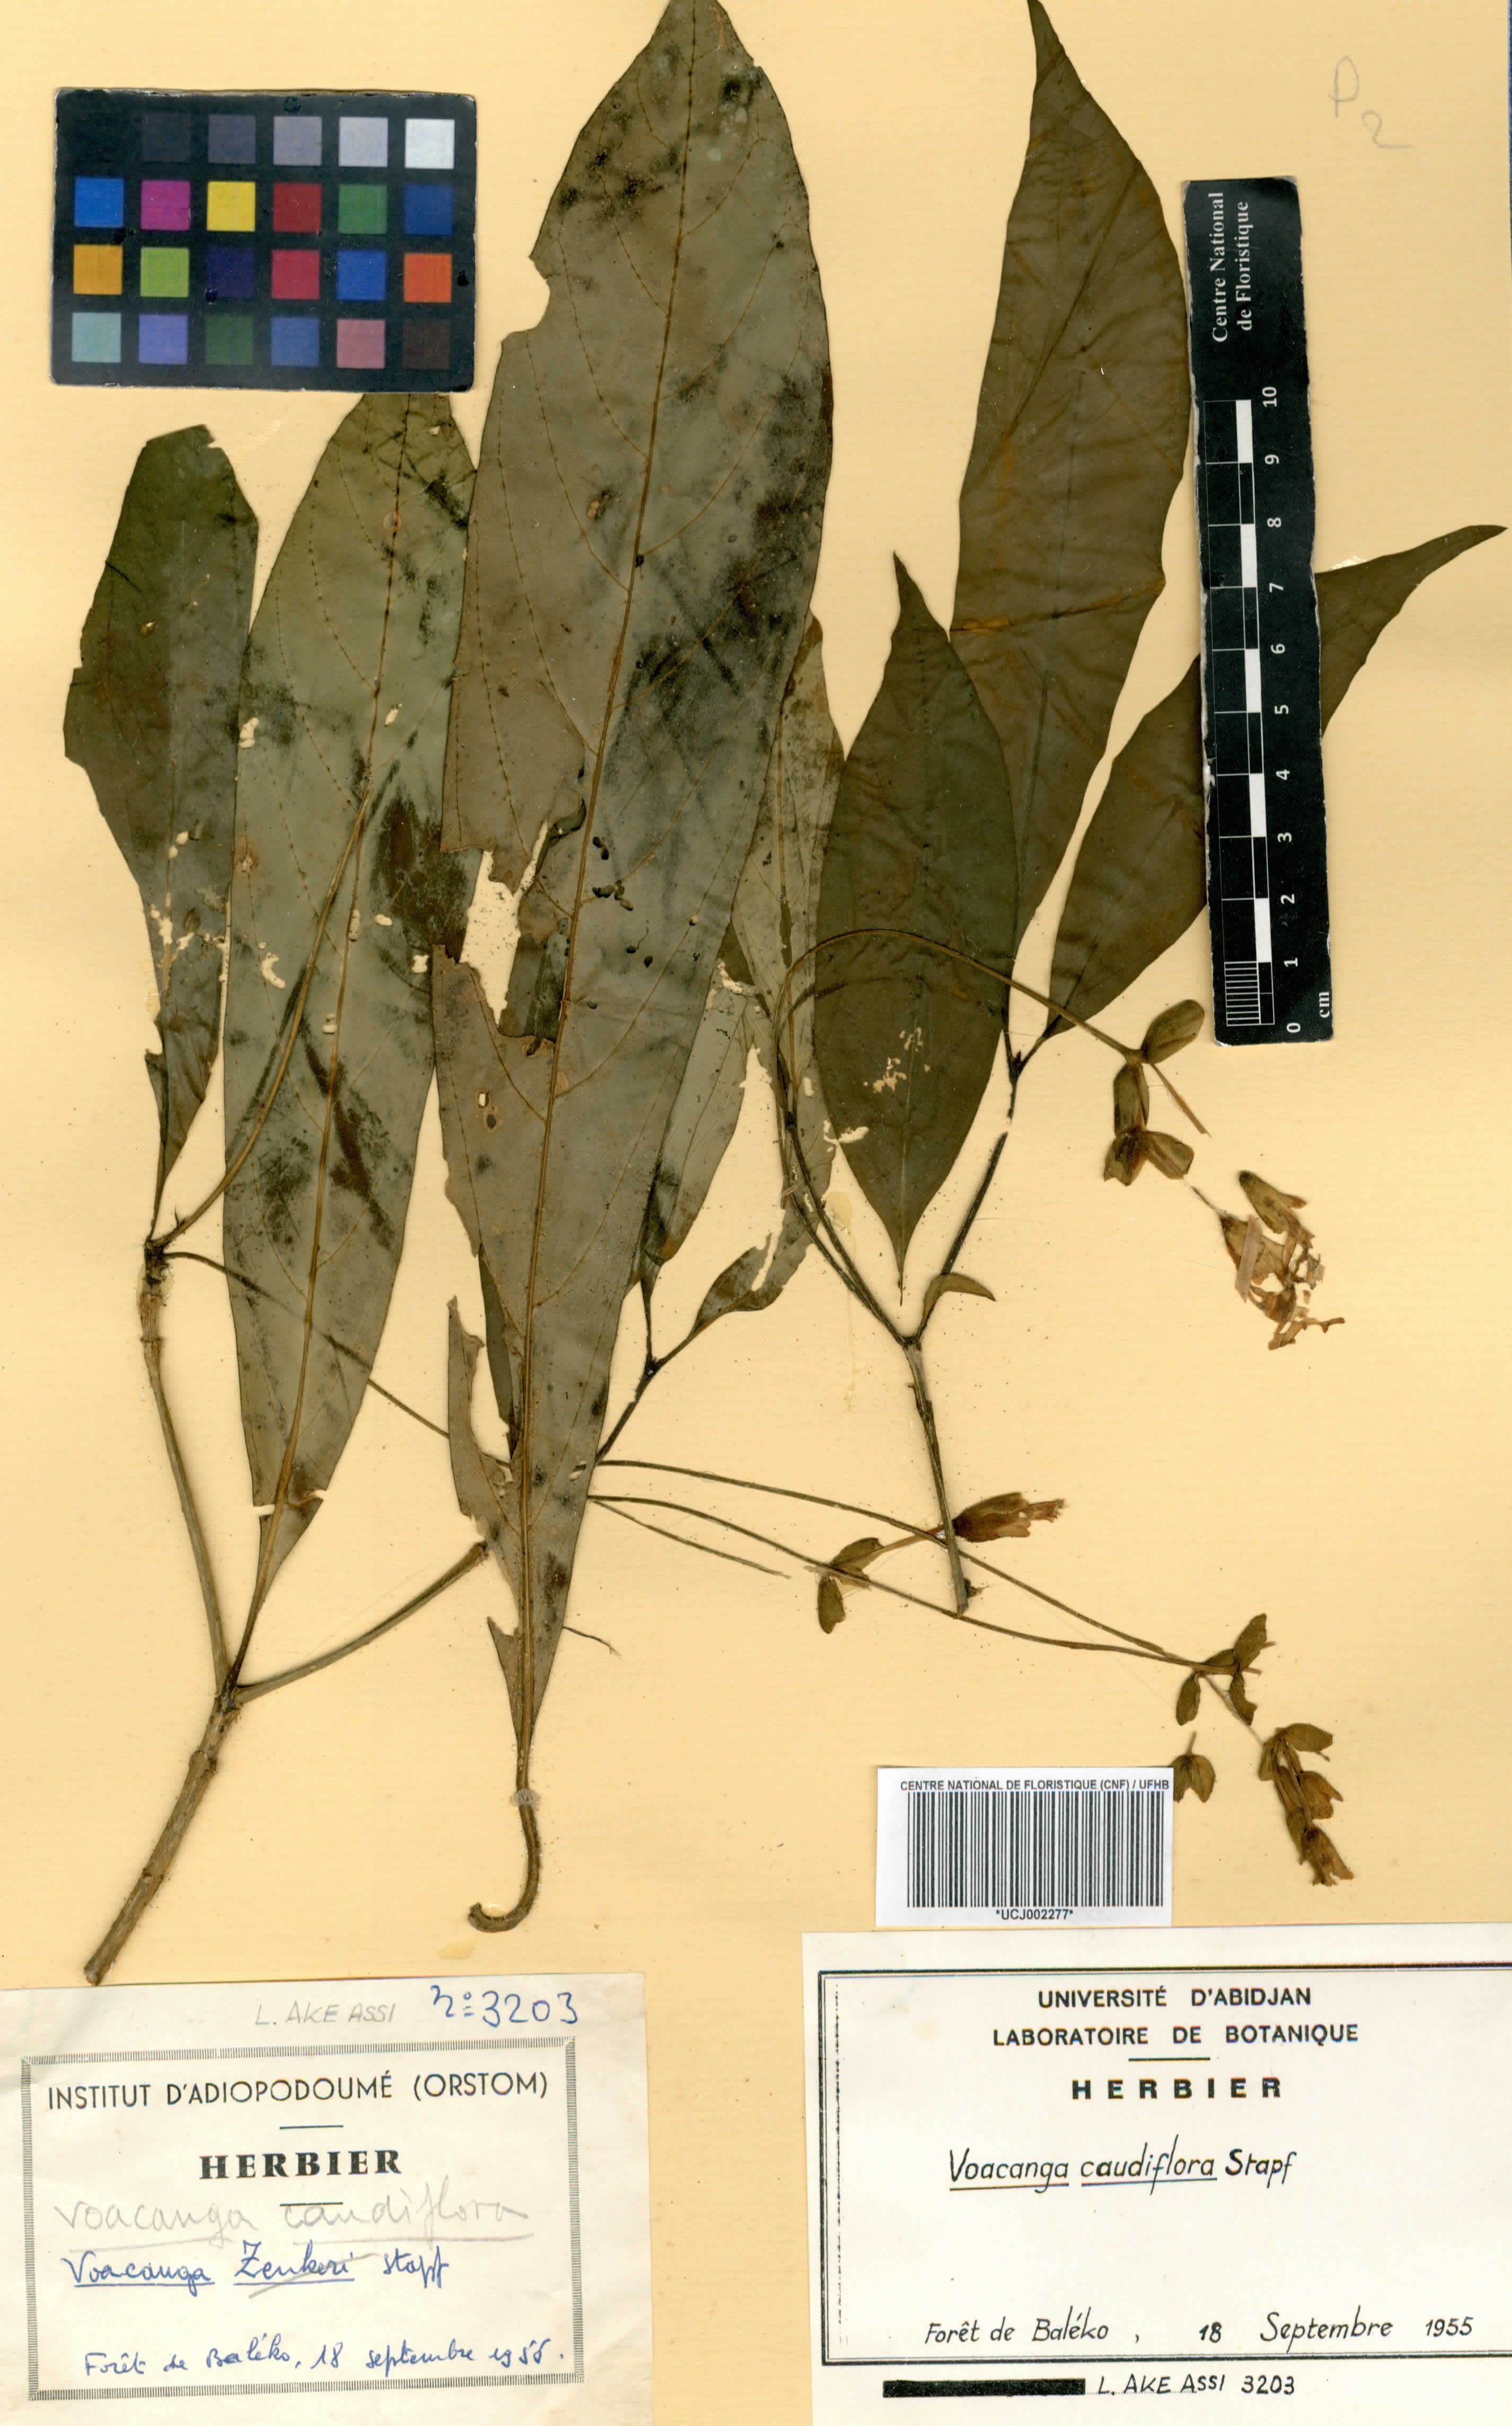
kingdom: Plantae
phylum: Tracheophyta
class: Magnoliopsida
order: Gentianales
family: Apocynaceae
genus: Voacanga
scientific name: Voacanga caudiflora
